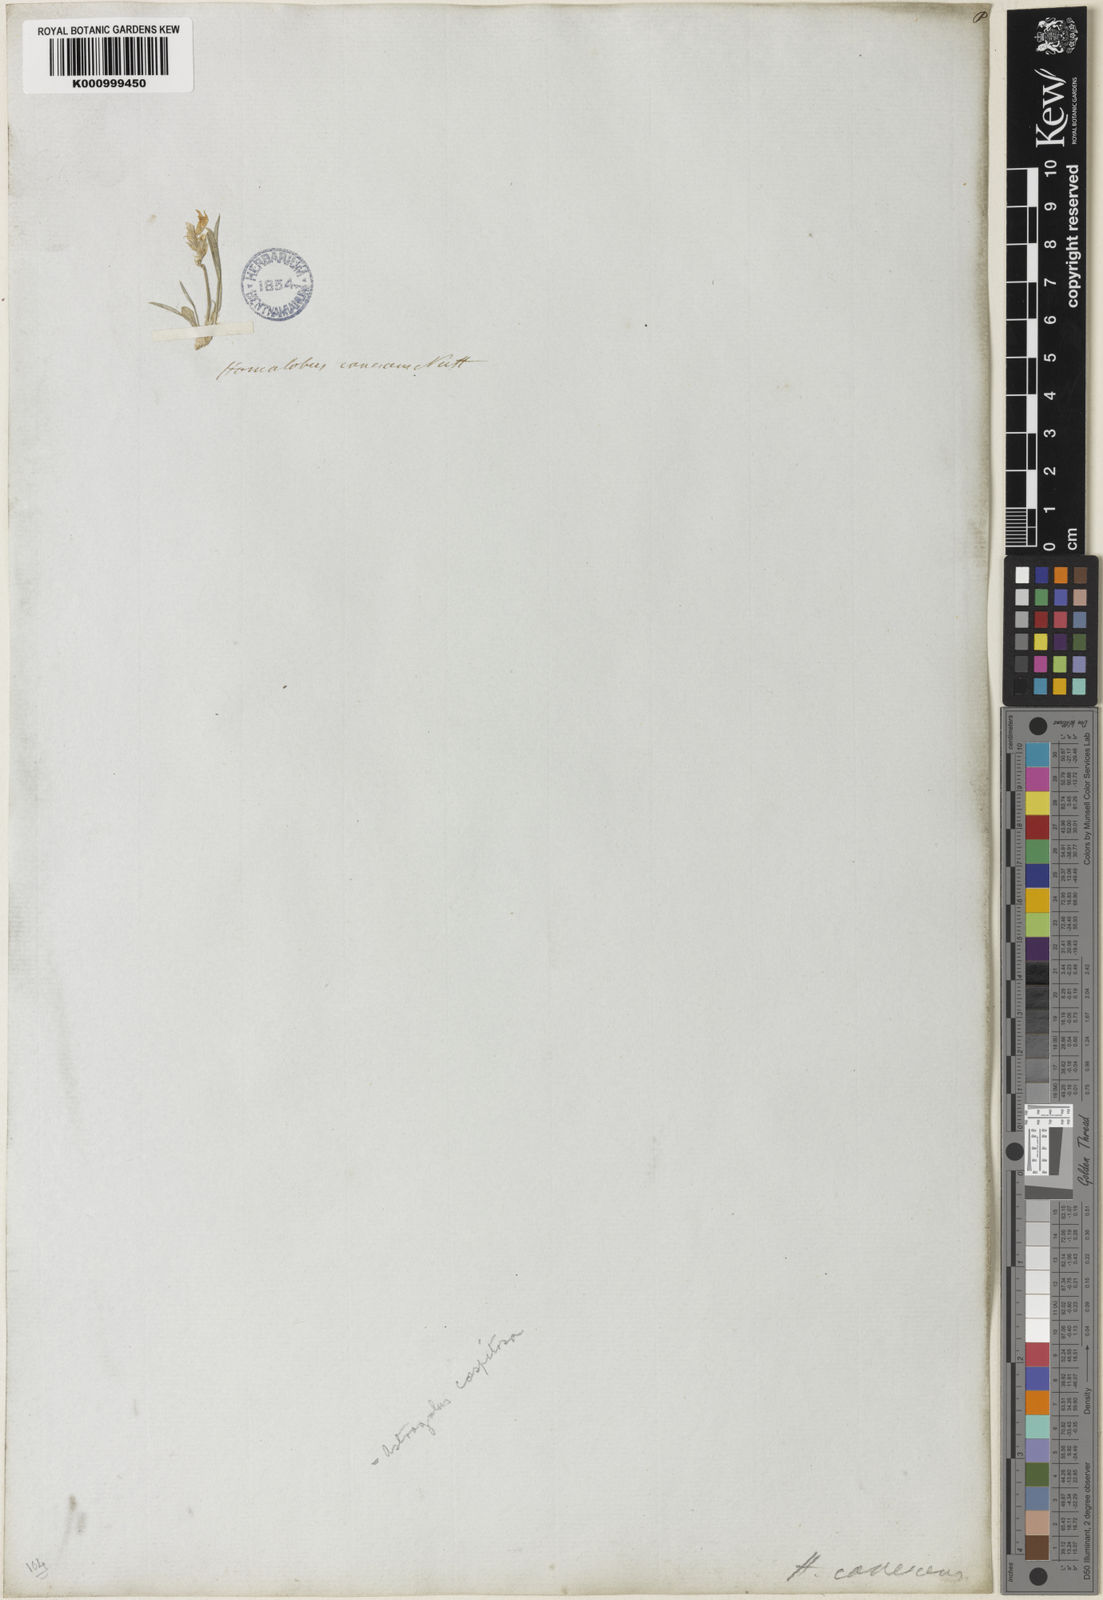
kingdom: Plantae
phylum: Tracheophyta
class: Magnoliopsida
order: Fabales
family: Fabaceae
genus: Oxytropis
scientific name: Oxytropis caespitosa
